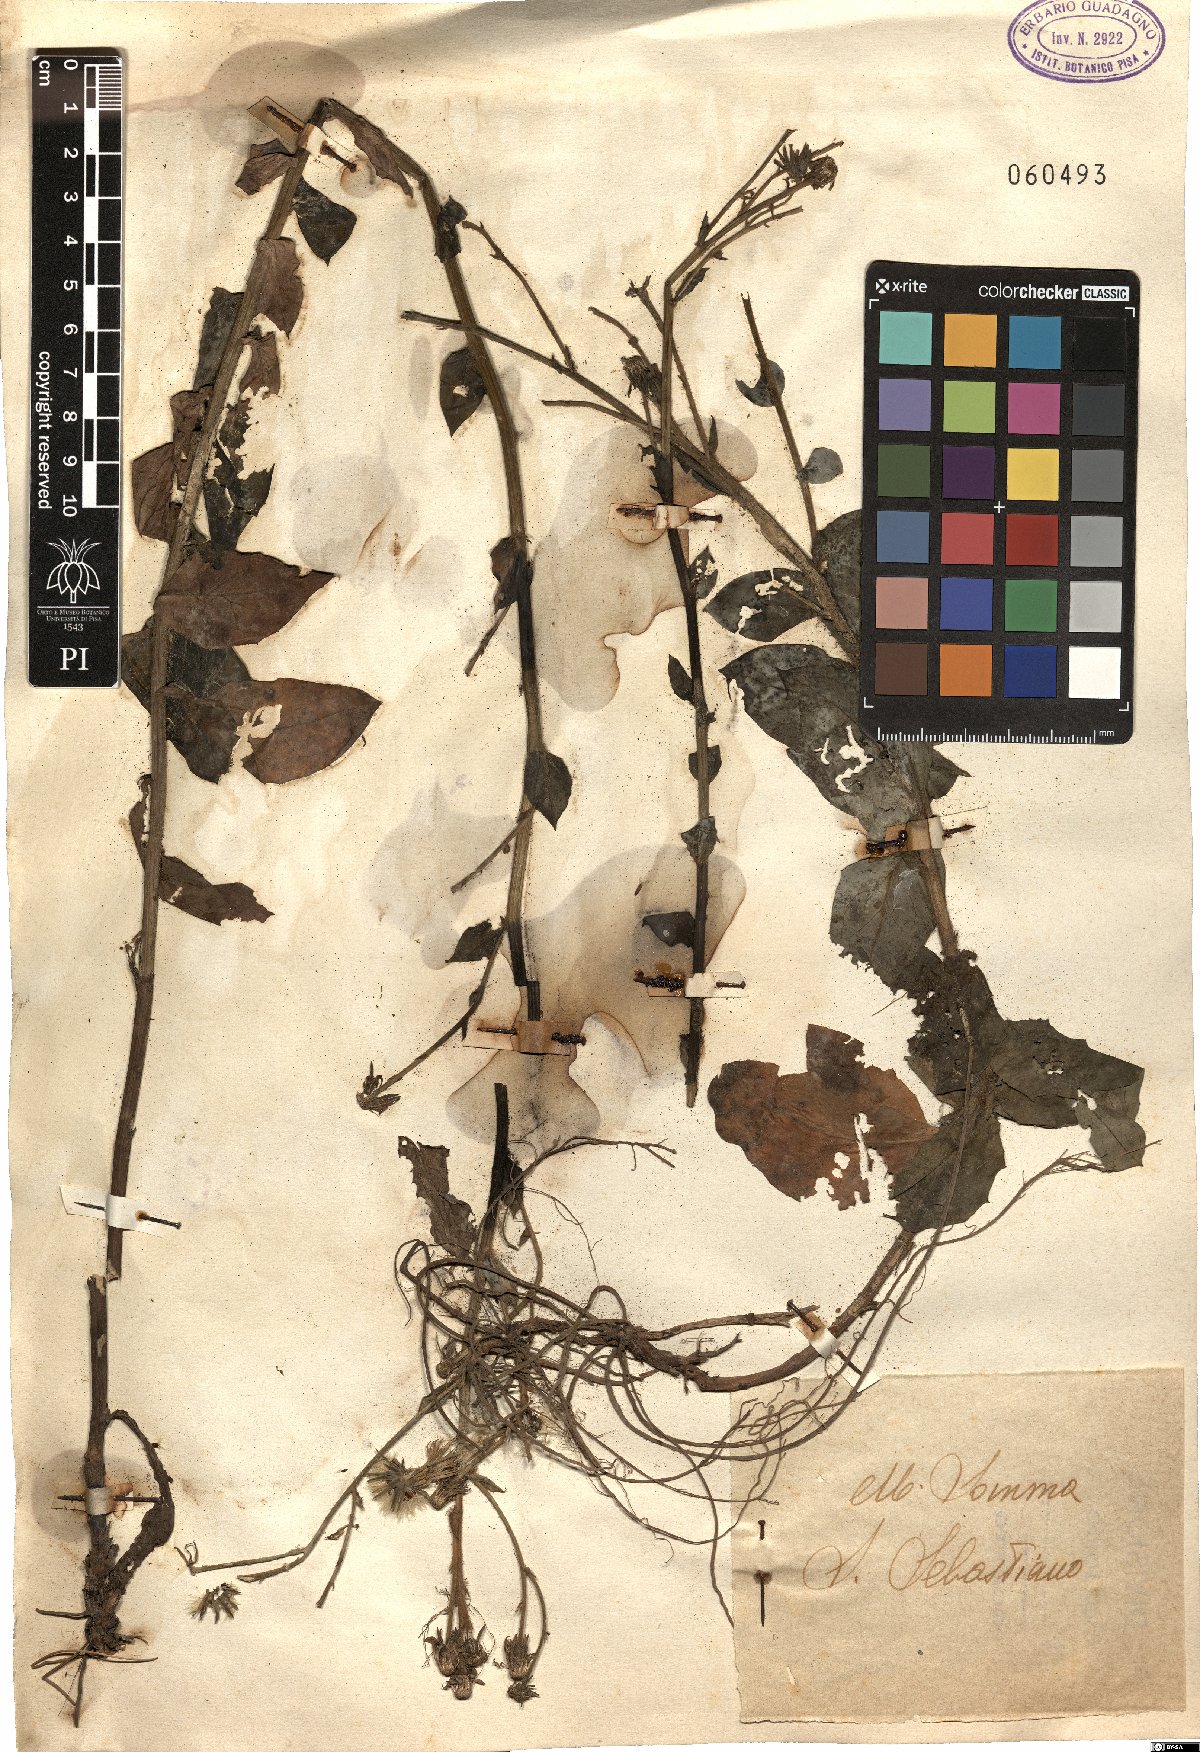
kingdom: Plantae
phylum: Tracheophyta
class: Magnoliopsida
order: Asterales
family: Asteraceae
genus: Hieracium
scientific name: Hieracium
